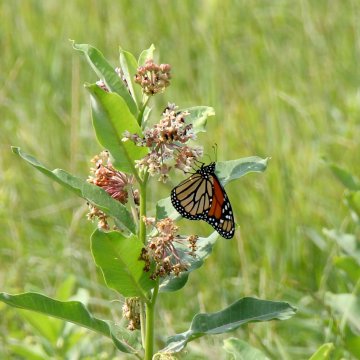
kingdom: Animalia
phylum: Arthropoda
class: Insecta
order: Lepidoptera
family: Nymphalidae
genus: Danaus
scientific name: Danaus plexippus
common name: Monarch
